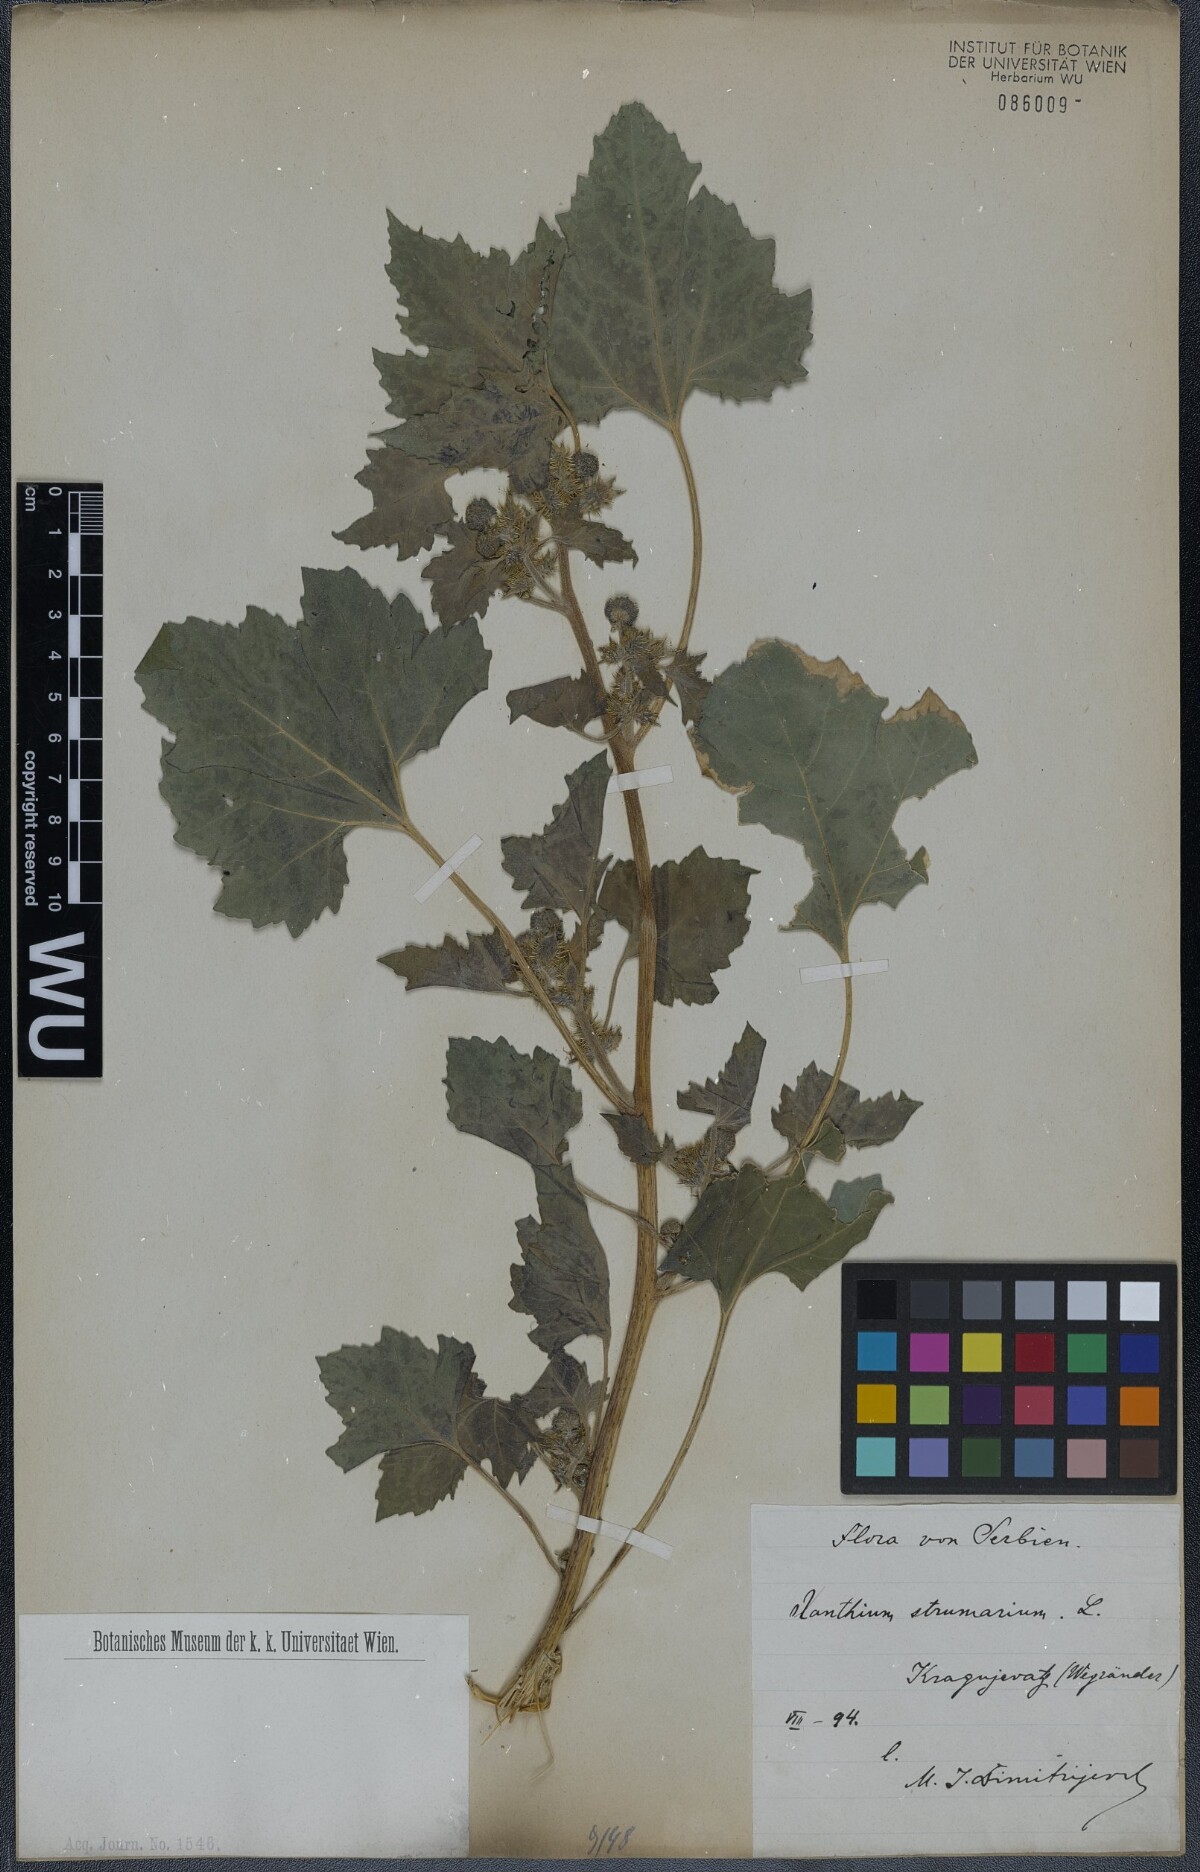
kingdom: Plantae
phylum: Tracheophyta
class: Magnoliopsida
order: Asterales
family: Asteraceae
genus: Xanthium
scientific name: Xanthium strumarium
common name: Rough cocklebur
